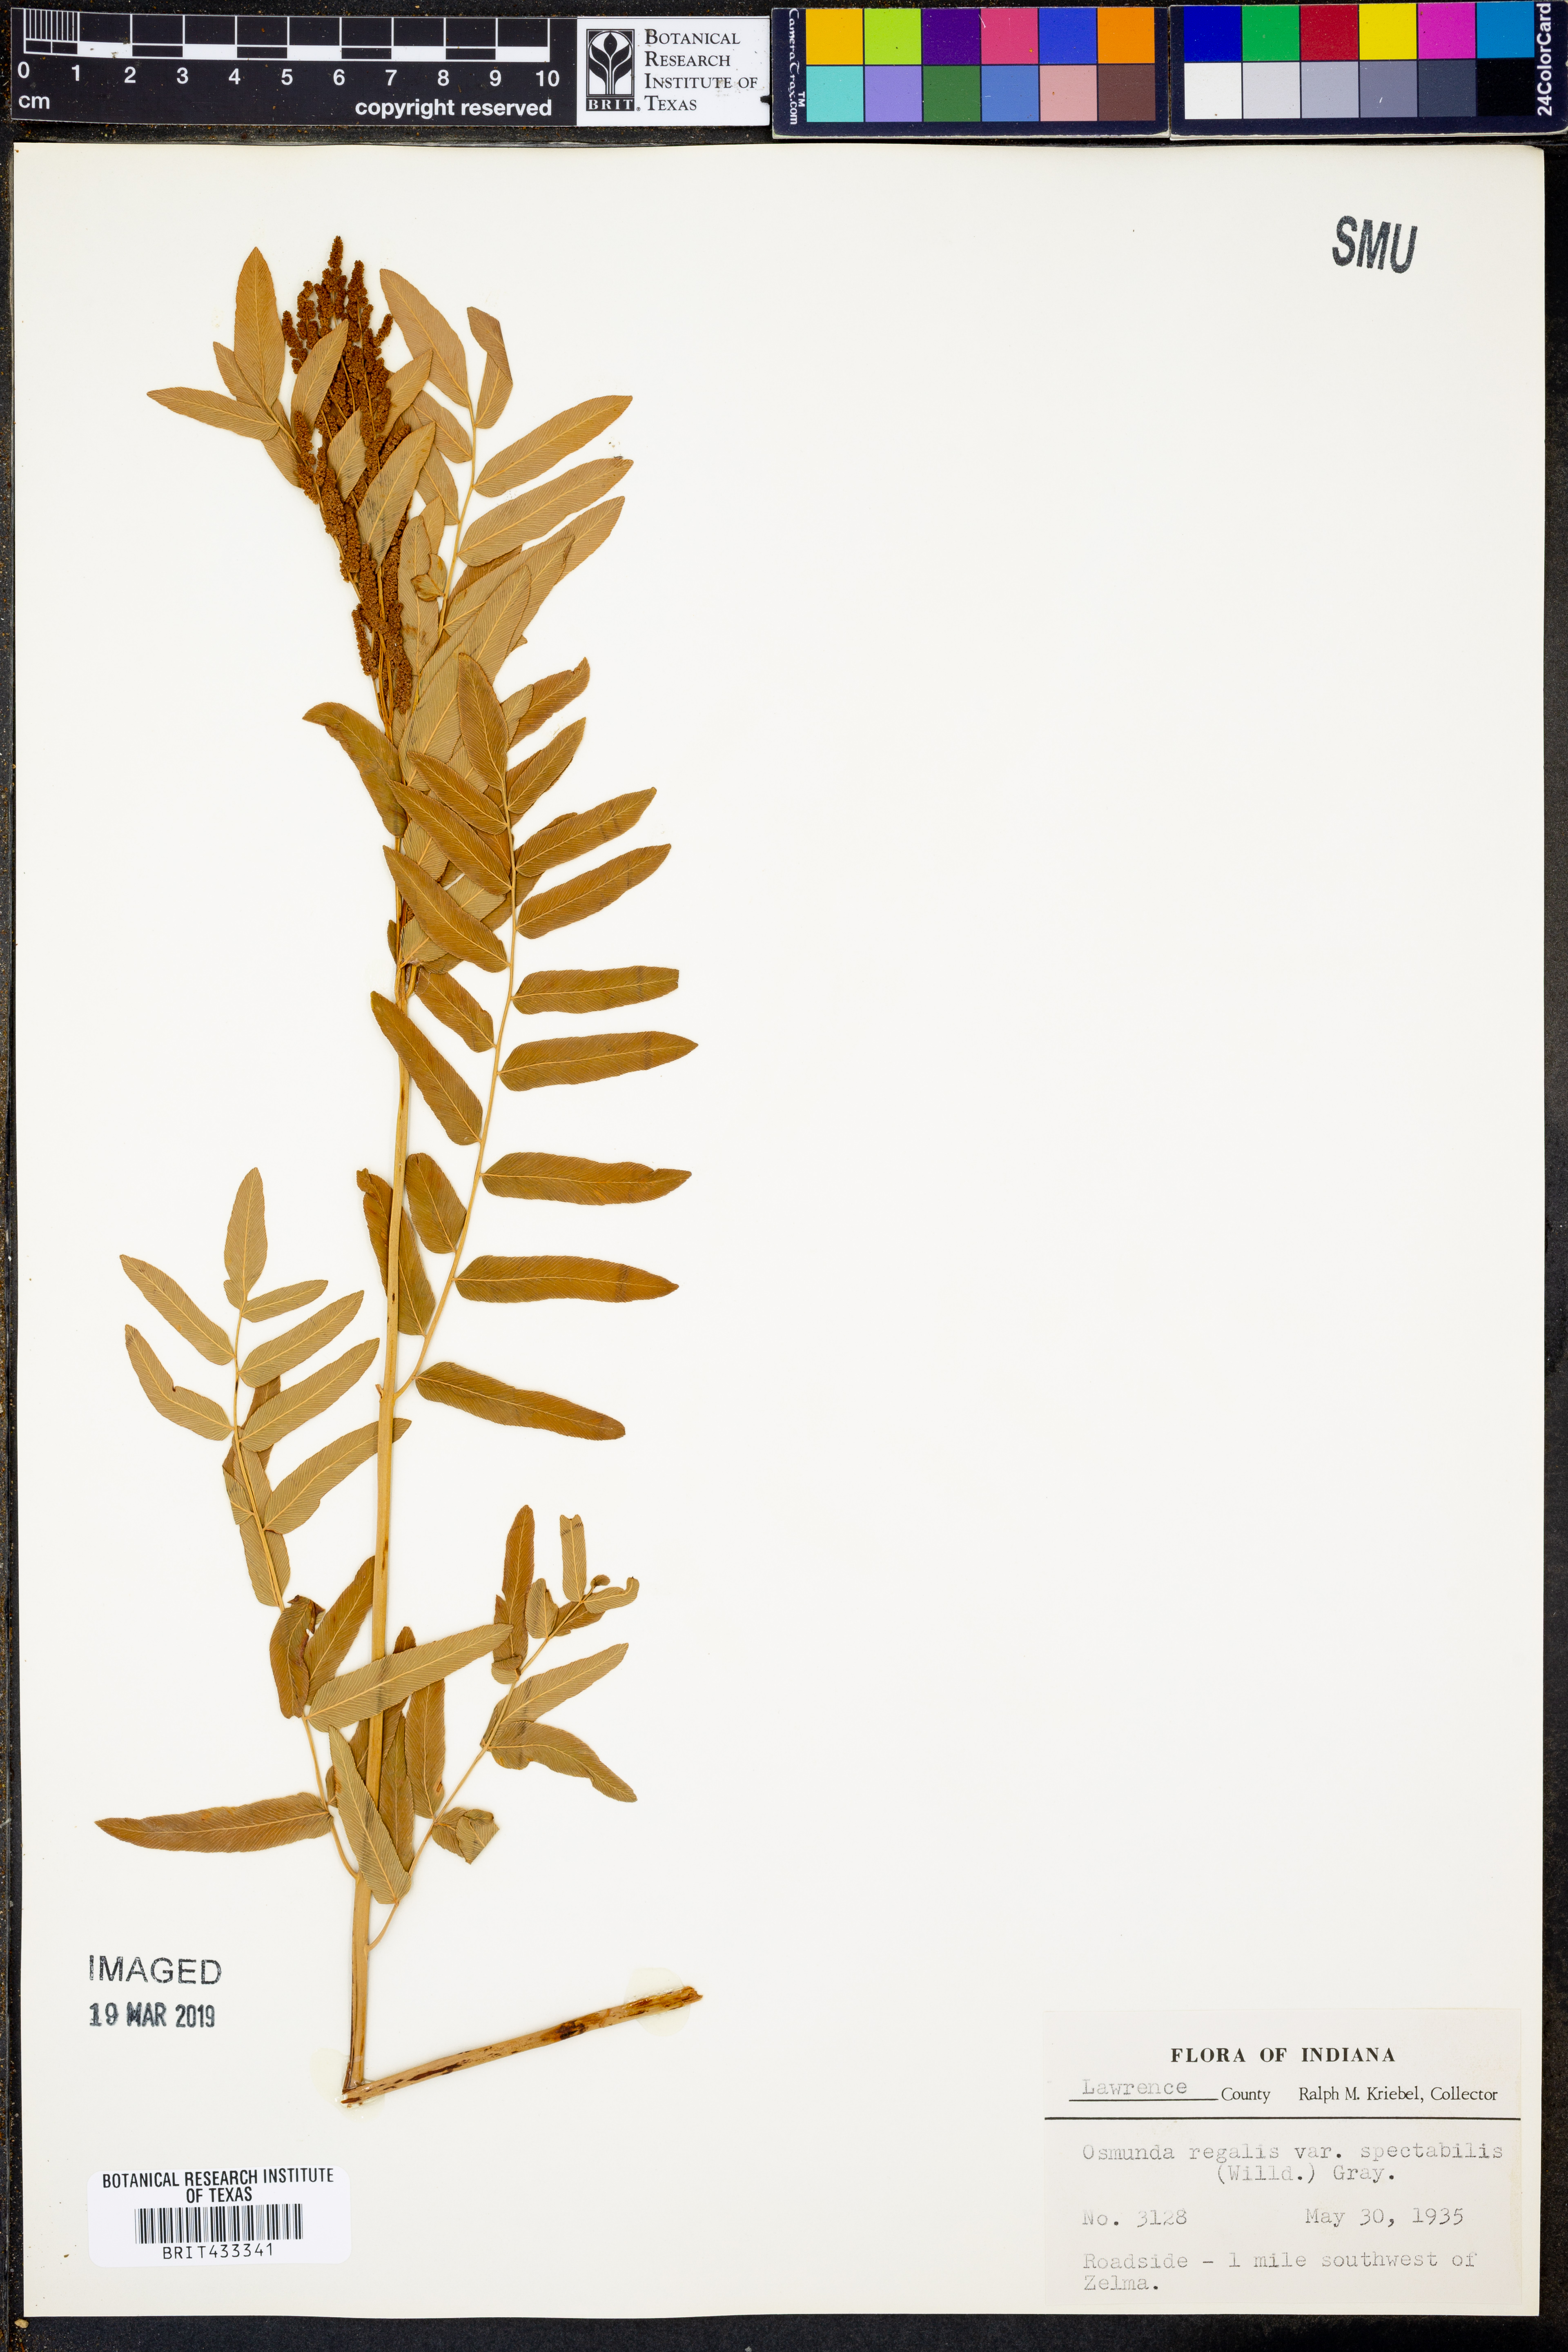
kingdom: Plantae
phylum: Tracheophyta
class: Polypodiopsida
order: Osmundales
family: Osmundaceae
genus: Osmunda
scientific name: Osmunda spectabilis
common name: American royal fern
